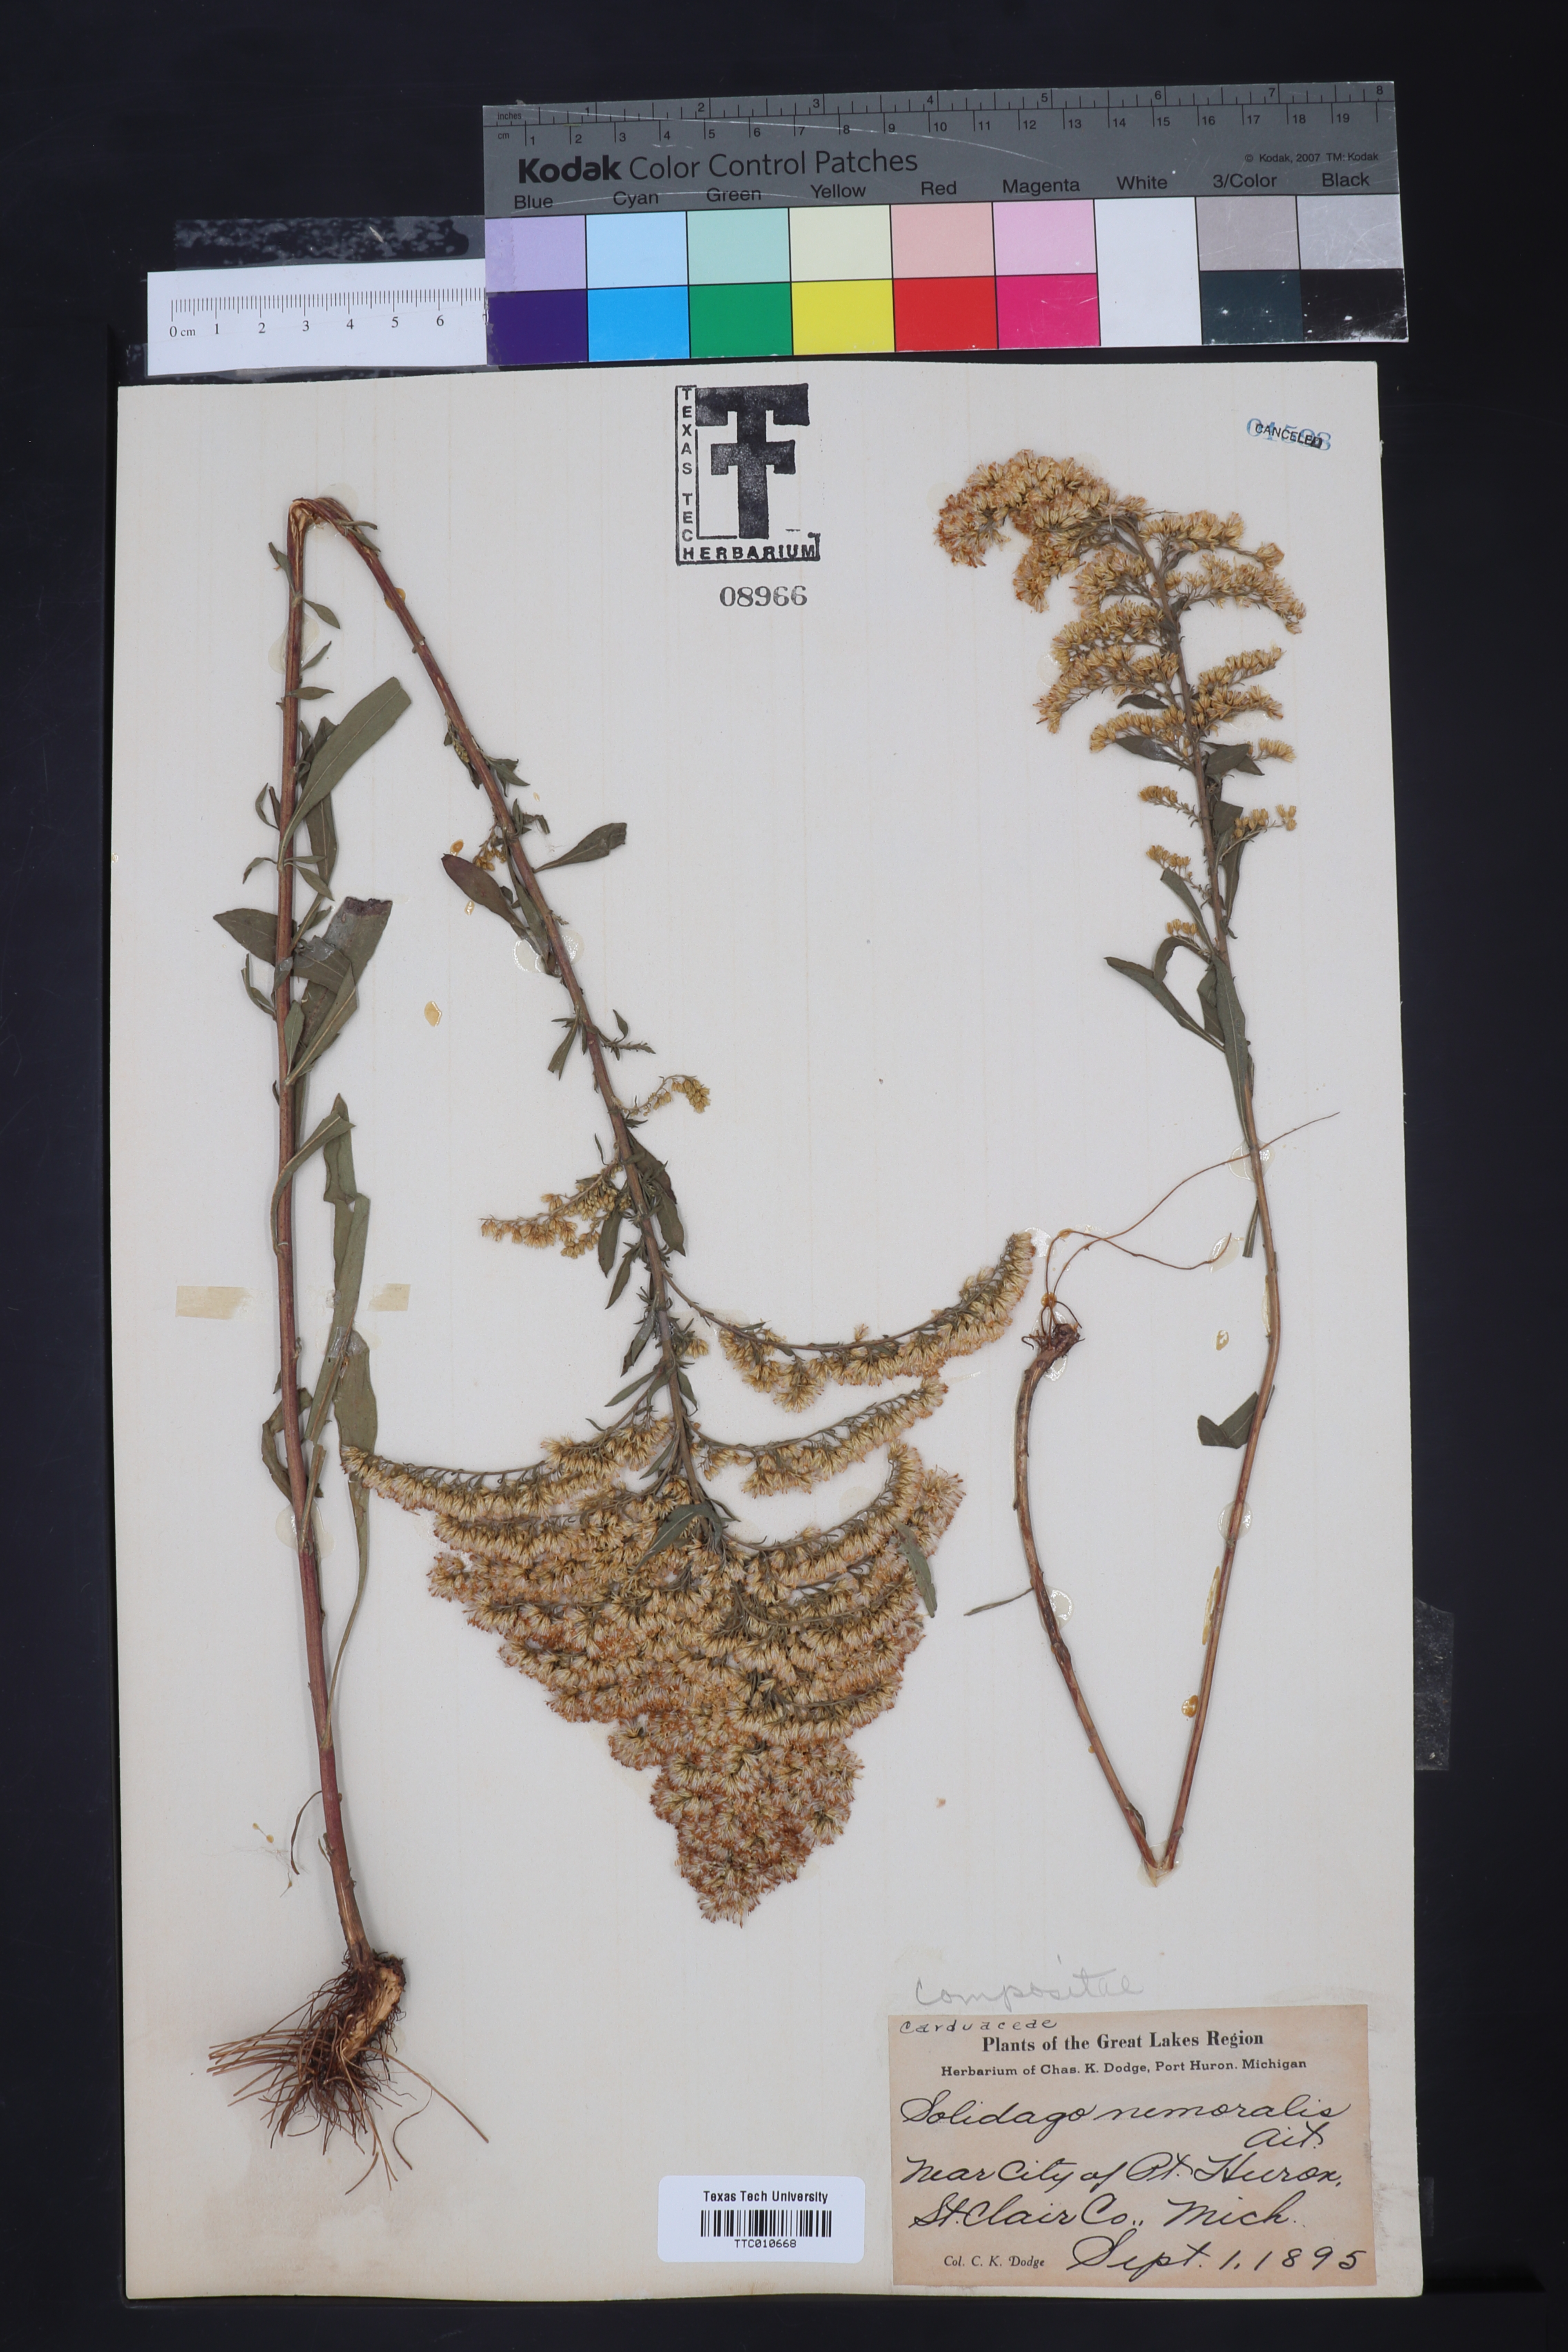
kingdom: Plantae
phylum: Tracheophyta
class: Magnoliopsida
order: Asterales
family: Asteraceae
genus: Solidago
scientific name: Solidago nemoralis
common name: Grey goldenrod
